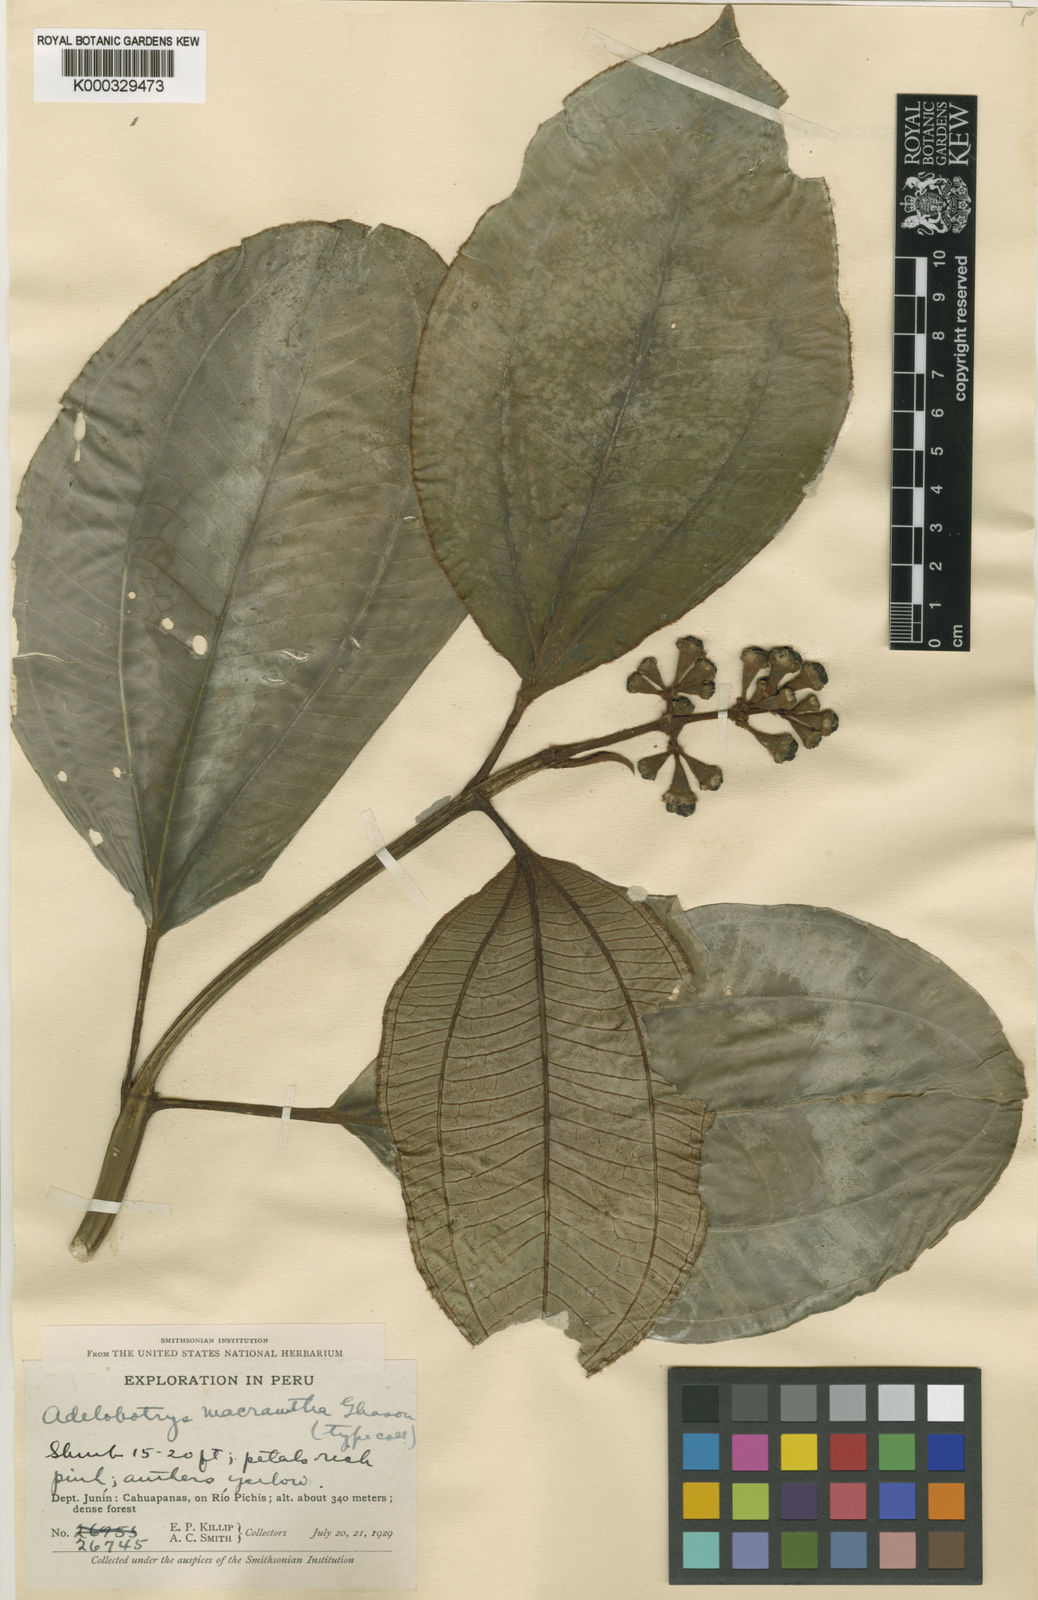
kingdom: Plantae
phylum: Tracheophyta
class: Magnoliopsida
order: Myrtales
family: Melastomataceae
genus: Adelobotrys
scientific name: Adelobotrys macranthus
